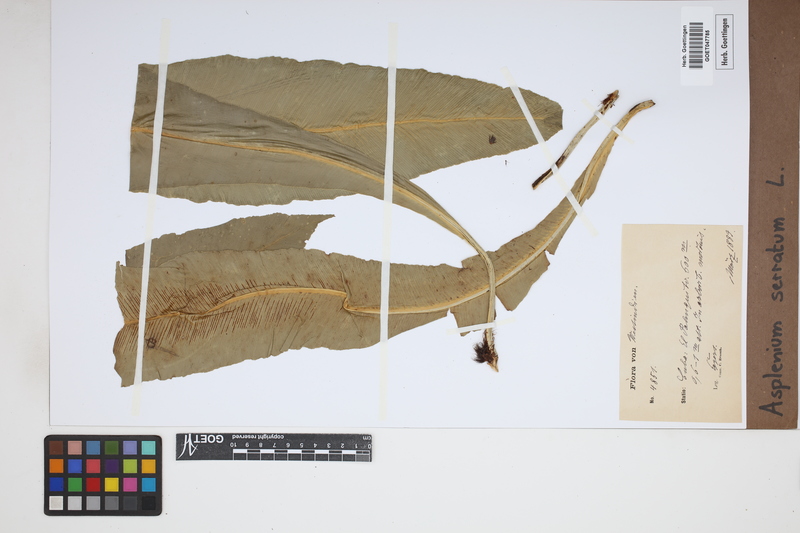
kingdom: Plantae
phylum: Tracheophyta
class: Polypodiopsida
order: Polypodiales
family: Aspleniaceae
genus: Asplenium
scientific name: Asplenium serratum
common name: Wild birdnest fern
